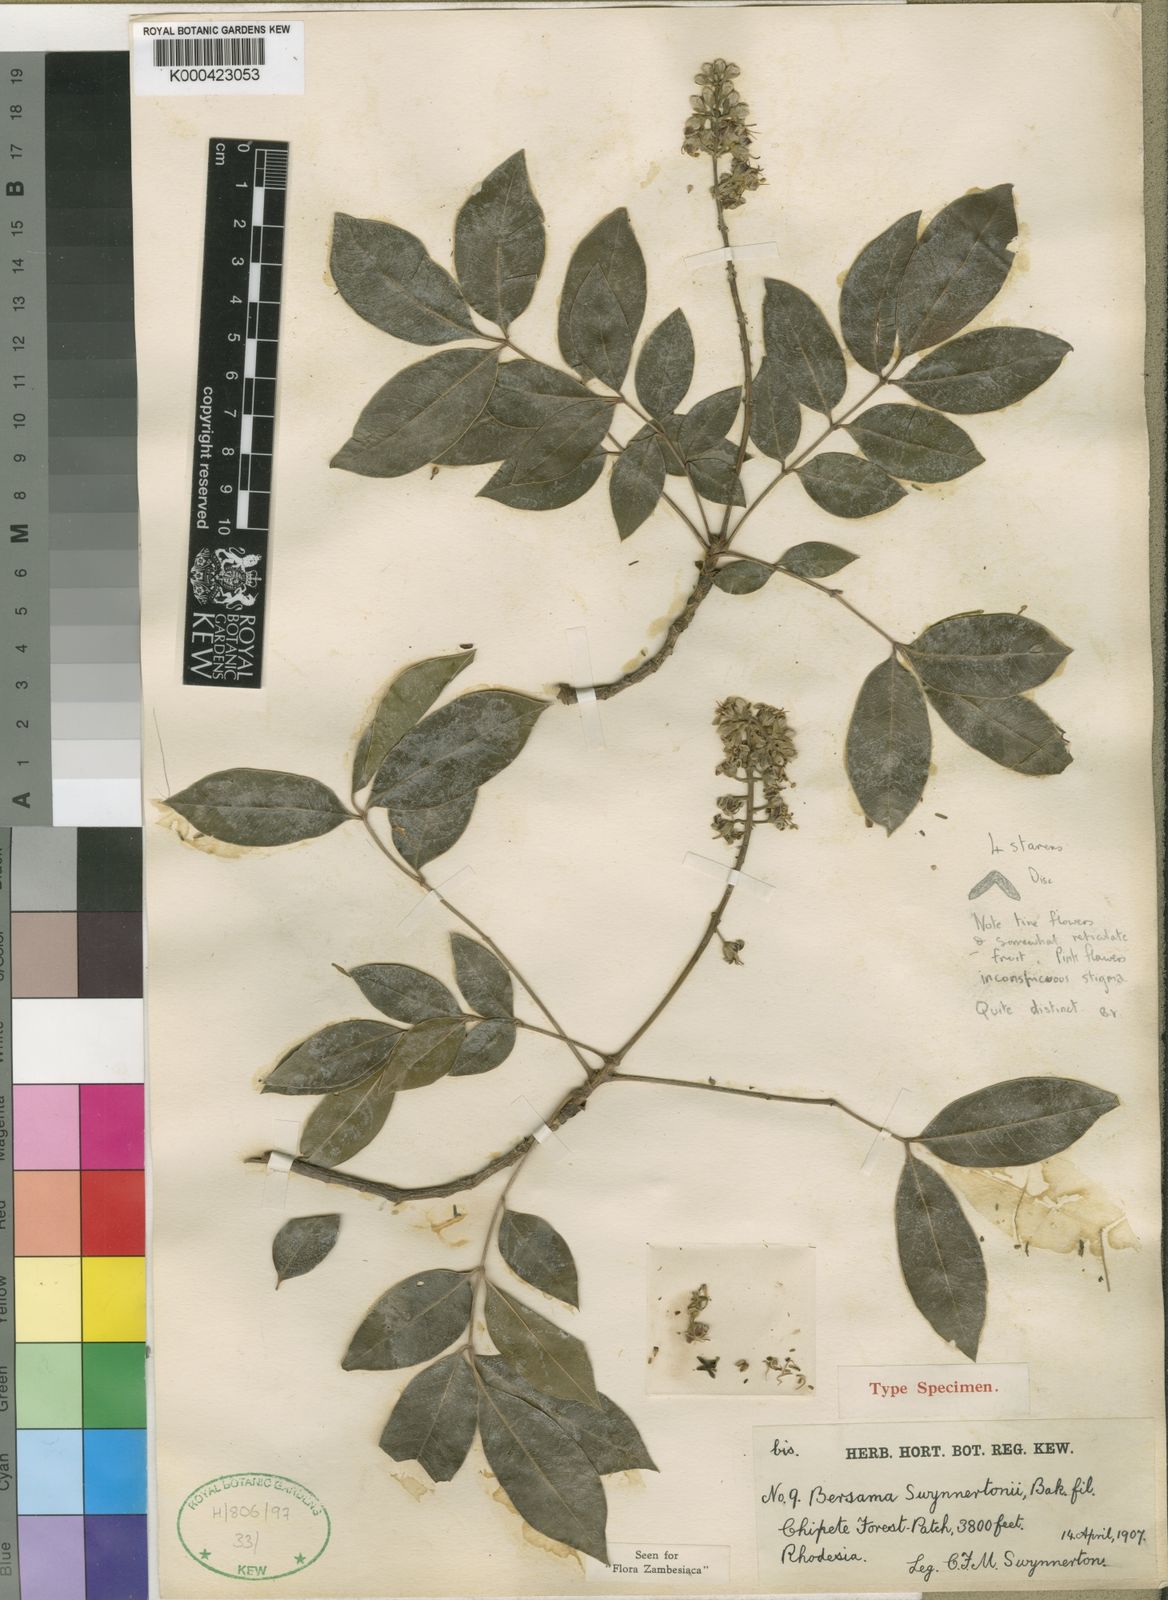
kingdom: Plantae
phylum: Tracheophyta
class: Magnoliopsida
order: Geraniales
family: Melianthaceae
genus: Bersama
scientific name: Bersama swynnertonii
